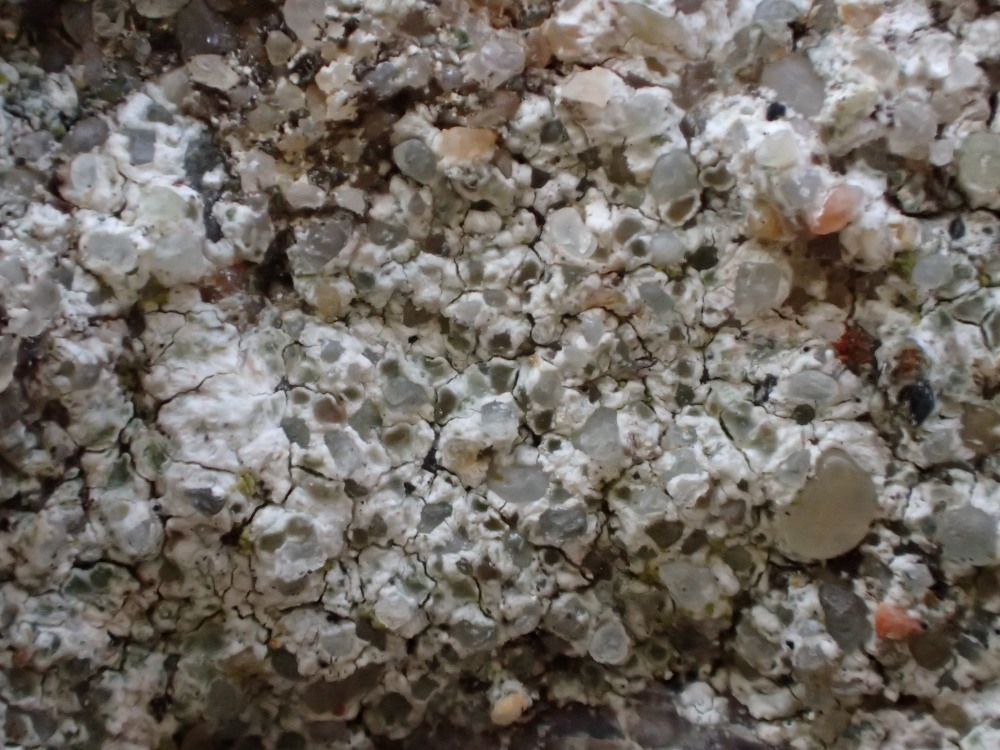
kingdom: Fungi
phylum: Ascomycota
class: Lecanoromycetes
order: Lecanorales
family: Lecanoraceae
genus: Polyozosia
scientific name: Polyozosia albescens
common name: cement-kantskivelav
